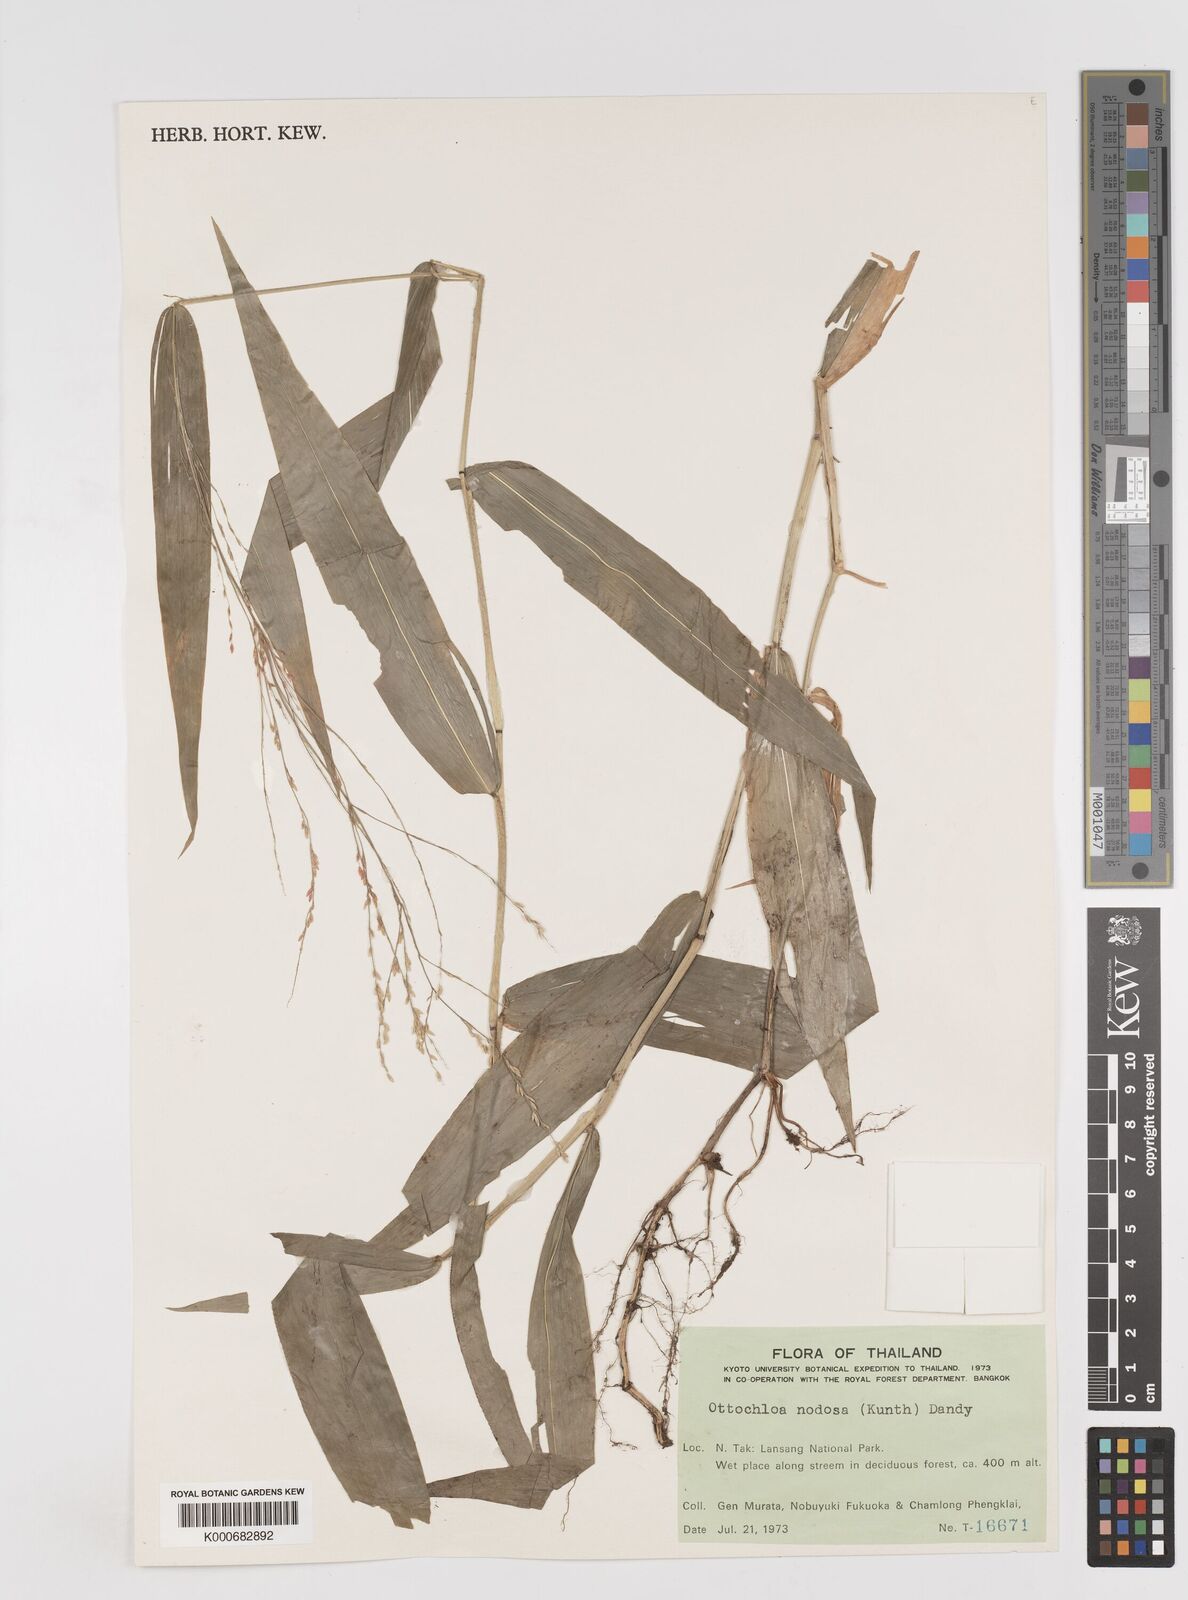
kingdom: Plantae
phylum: Tracheophyta
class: Liliopsida
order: Poales
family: Poaceae
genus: Ottochloa
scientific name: Ottochloa nodosa
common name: Slender-panic grass
